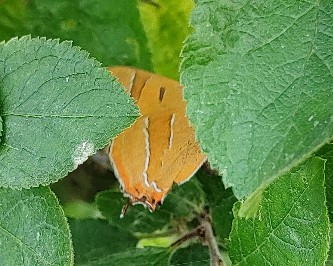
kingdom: Animalia
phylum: Arthropoda
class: Insecta
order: Lepidoptera
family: Lycaenidae
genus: Thecla
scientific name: Thecla betulae
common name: Guldhale
